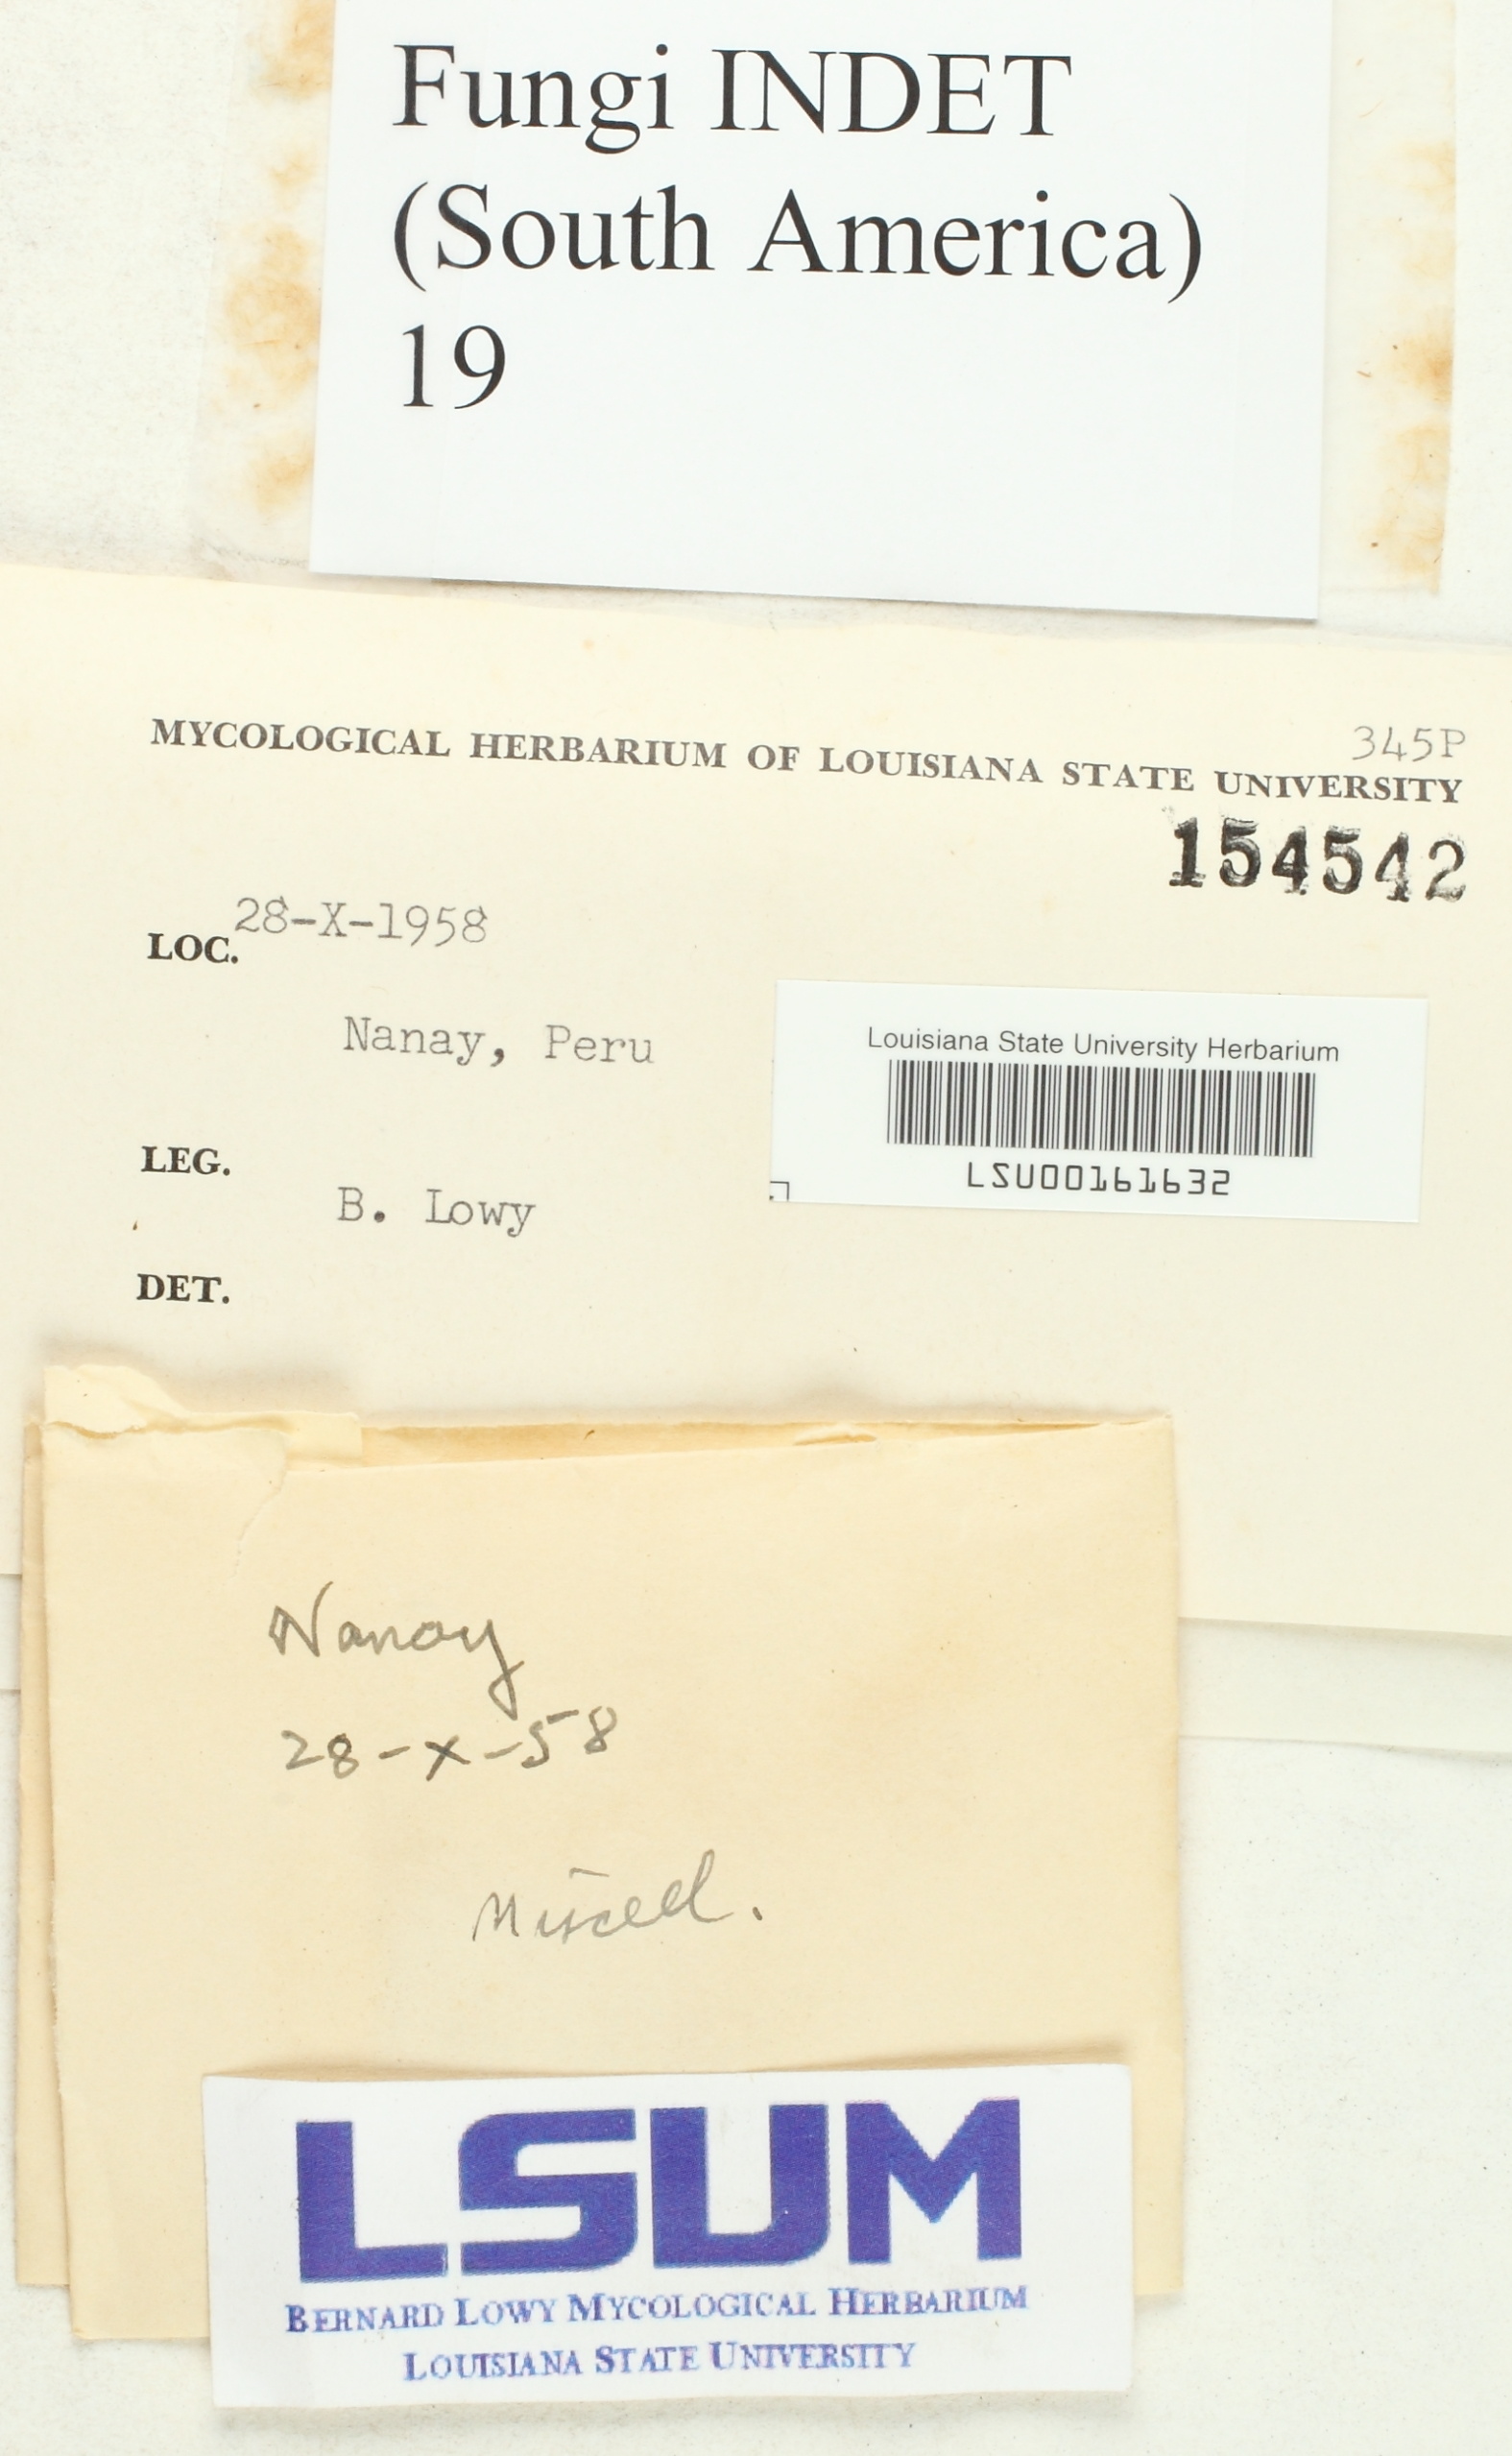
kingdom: Fungi
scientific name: Fungi
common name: Fungi
